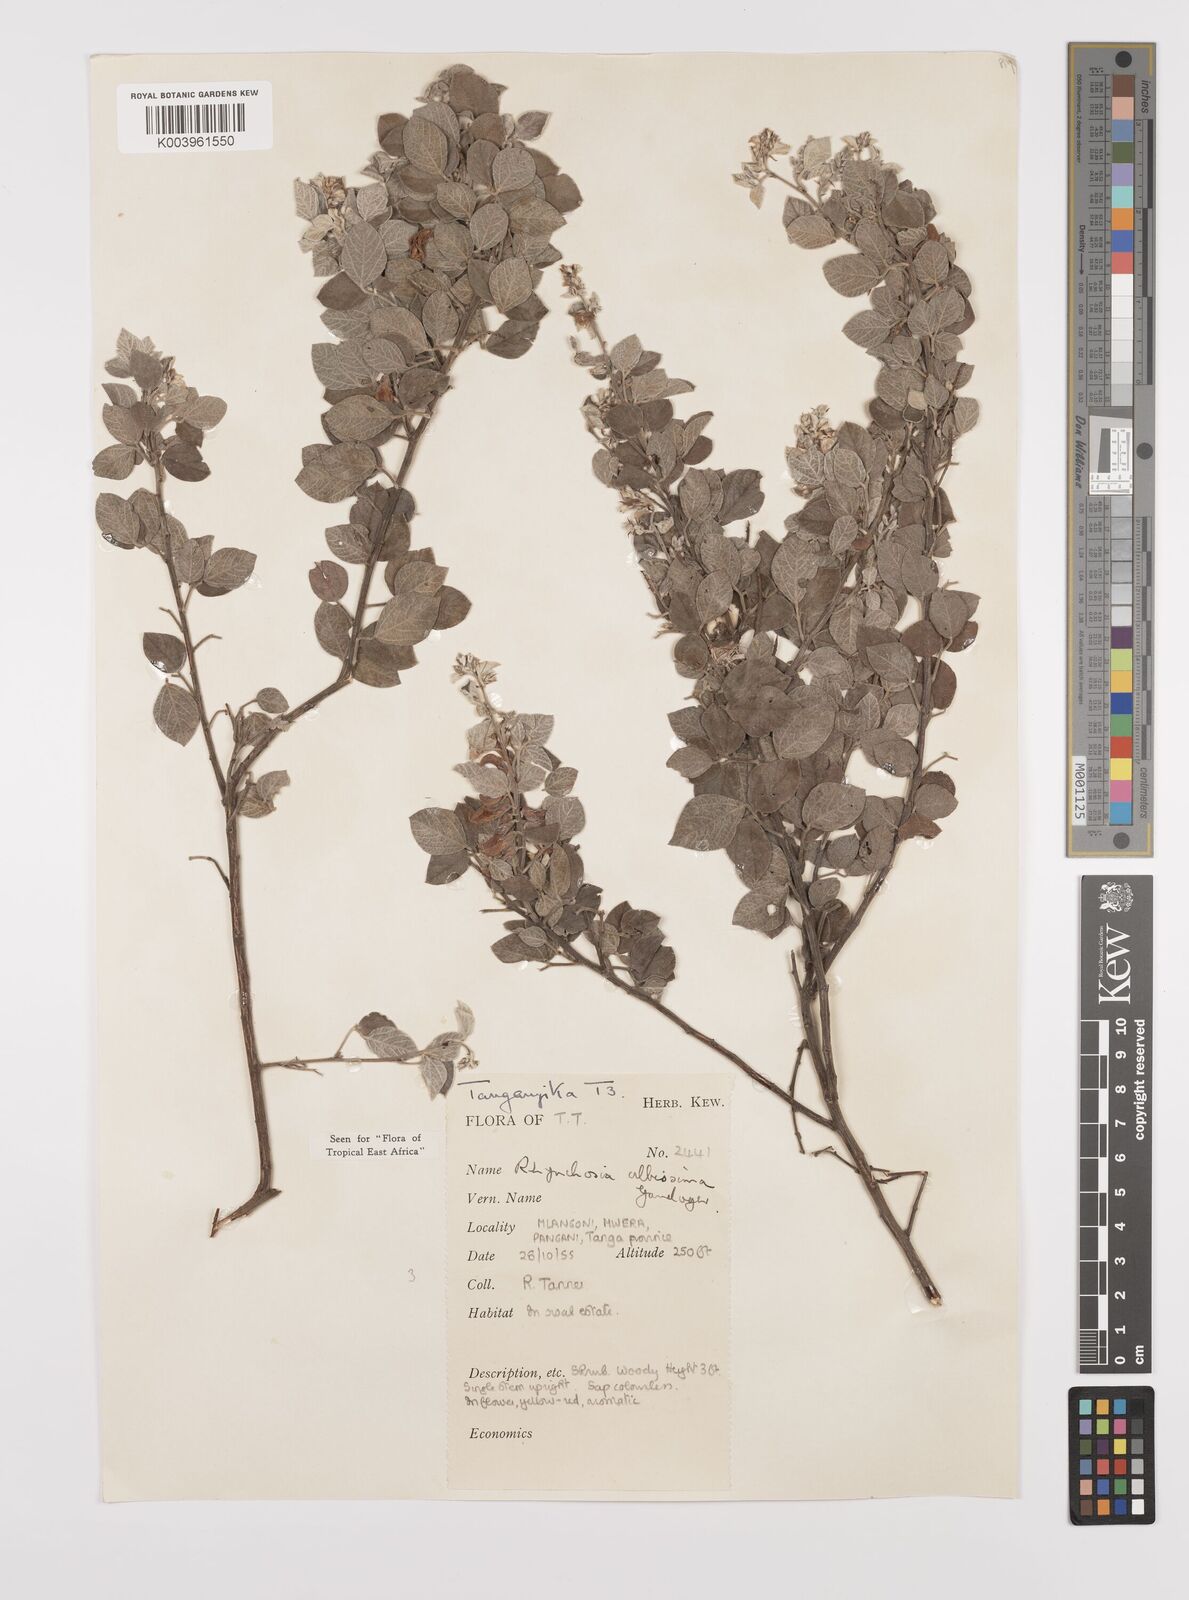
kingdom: Plantae
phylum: Tracheophyta
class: Magnoliopsida
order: Fabales
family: Fabaceae
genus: Rhynchosia
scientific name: Rhynchosia albissima
